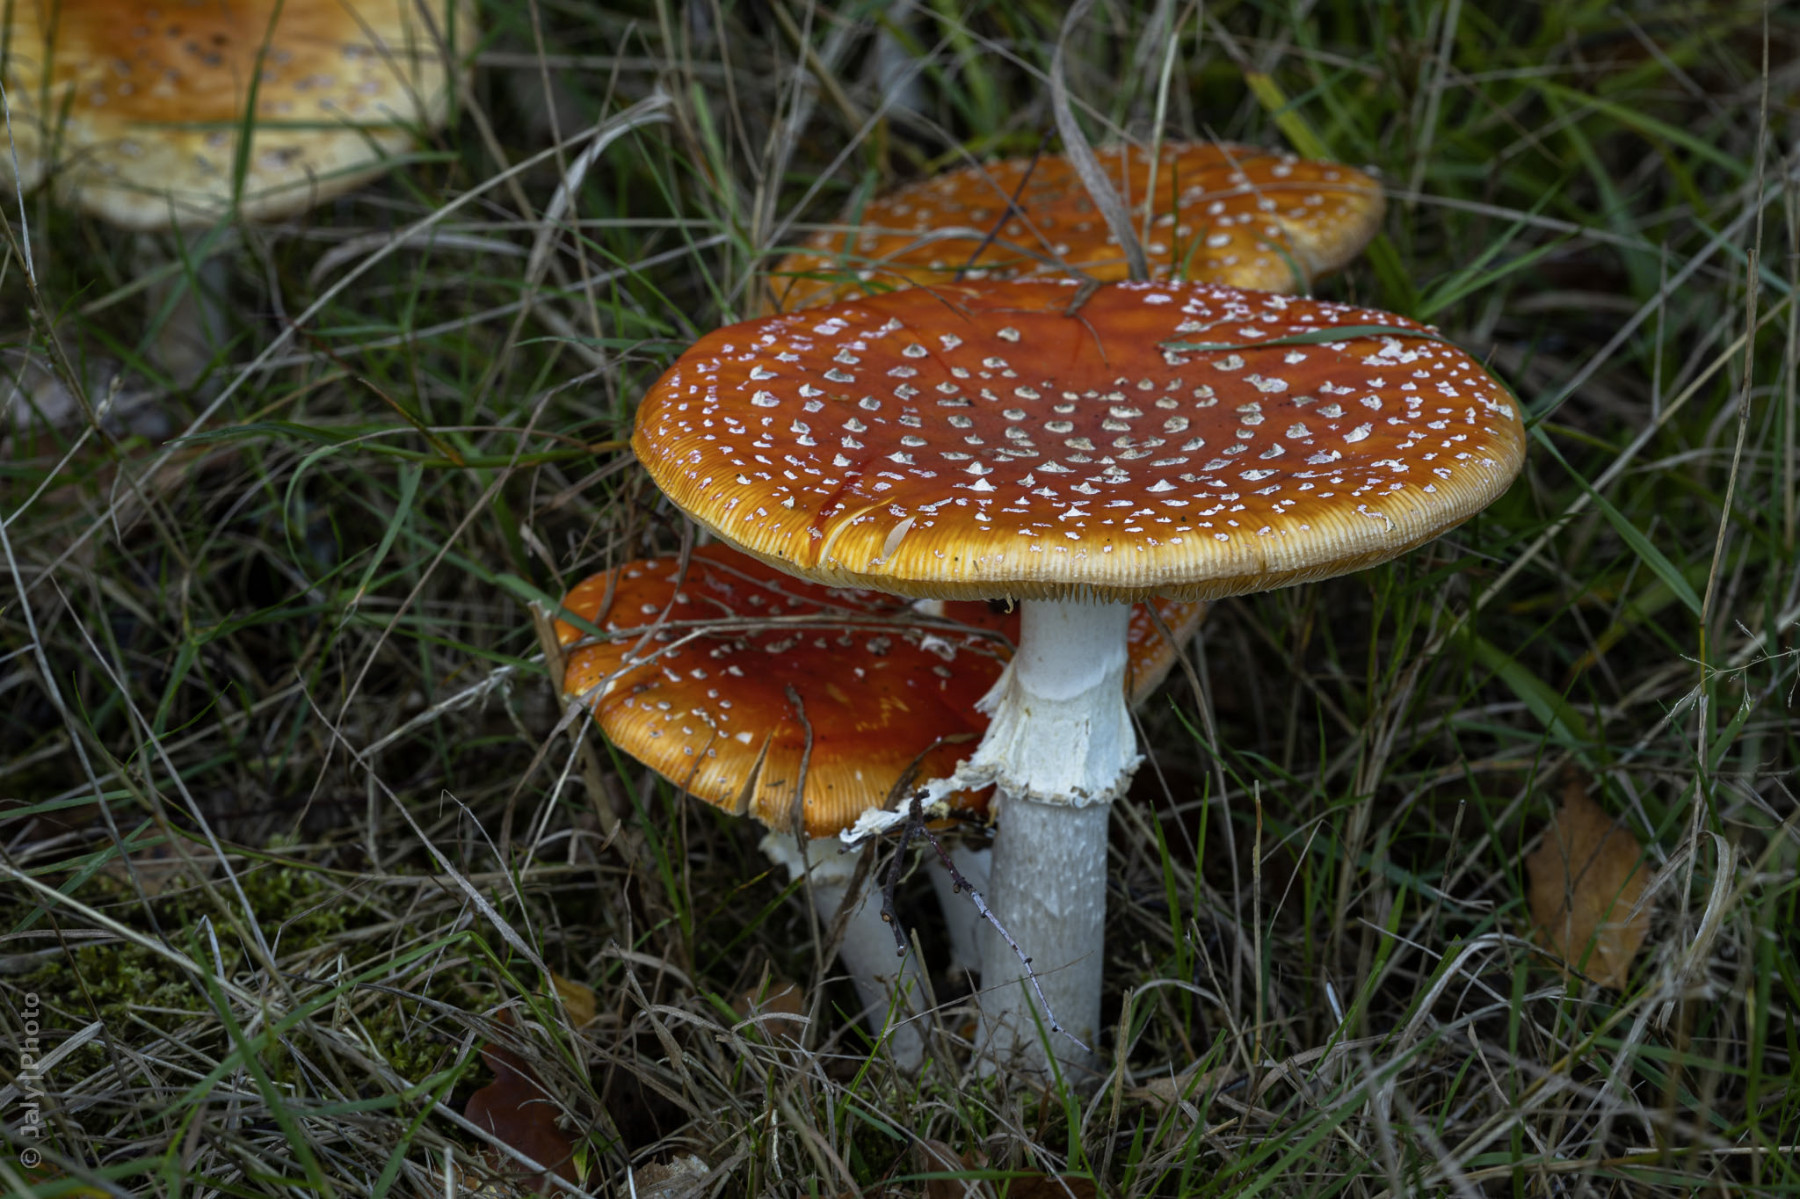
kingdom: Fungi
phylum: Basidiomycota
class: Agaricomycetes
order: Agaricales
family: Amanitaceae
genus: Amanita
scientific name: Amanita muscaria
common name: rød fluesvamp
